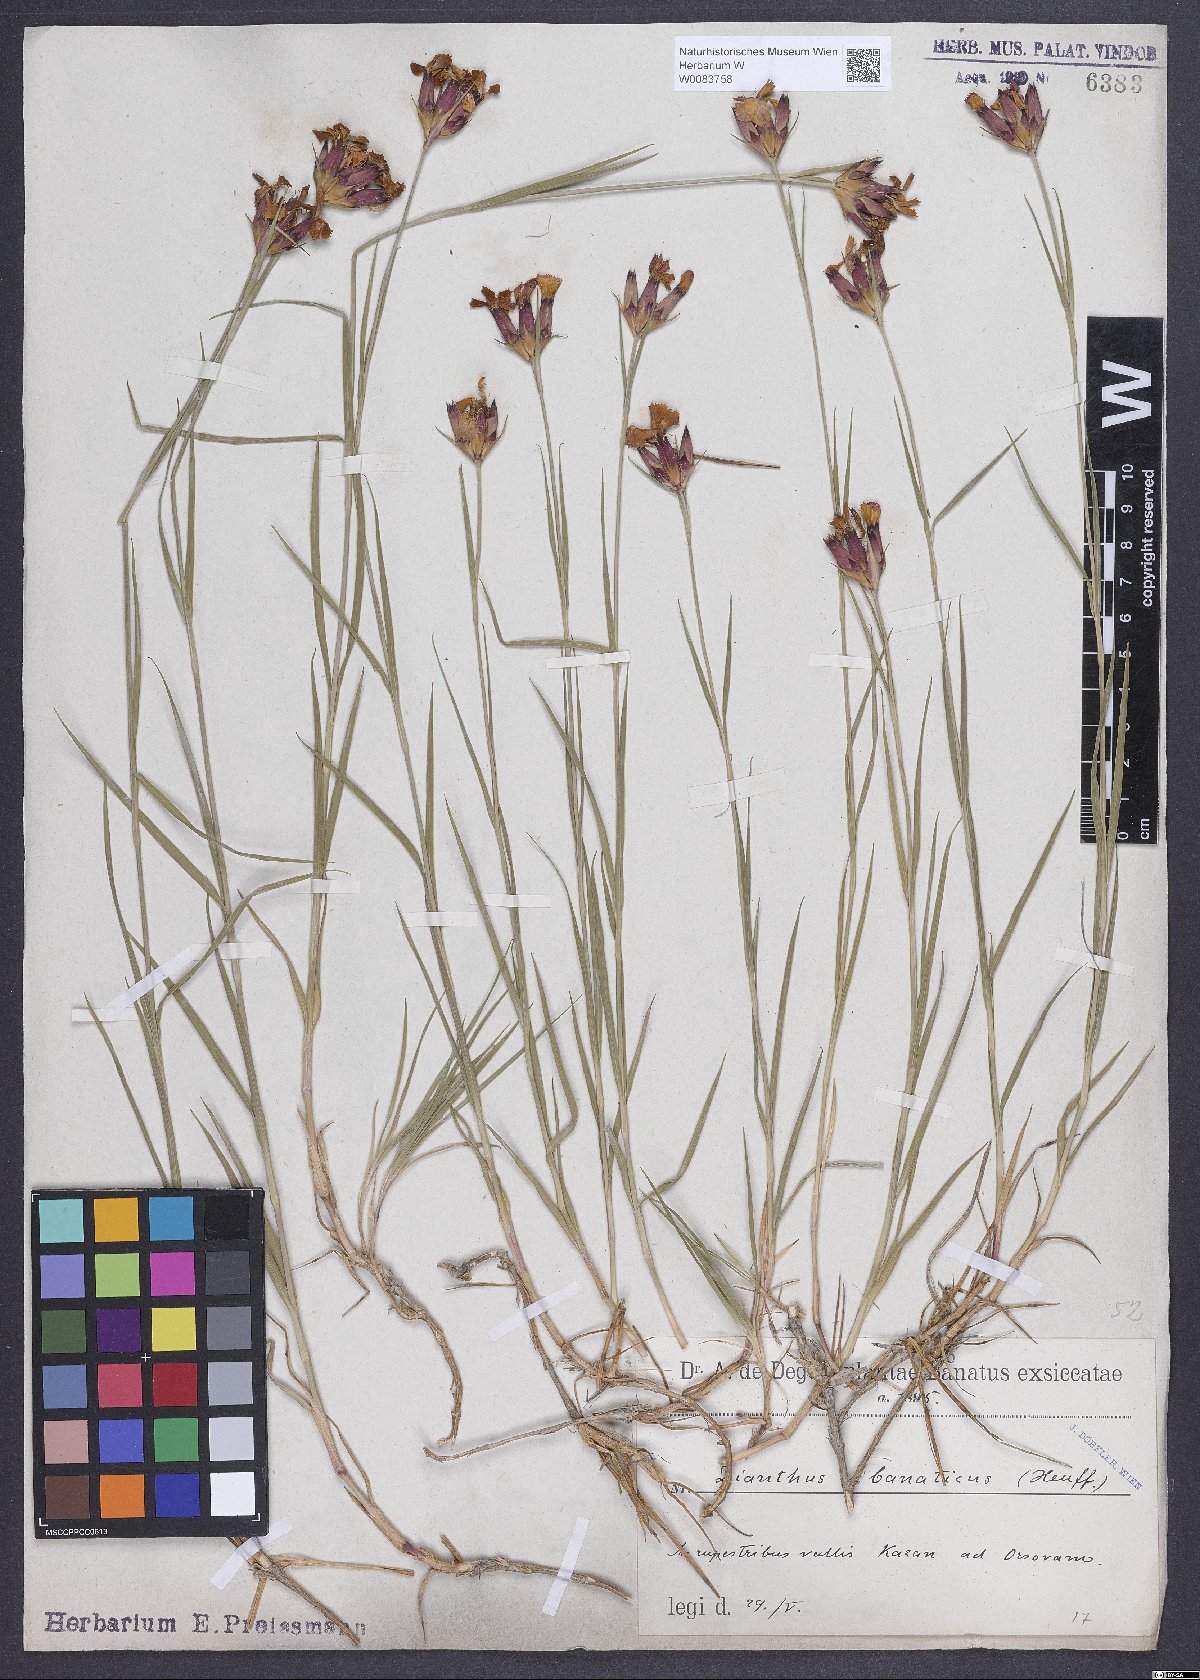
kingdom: Plantae
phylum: Tracheophyta
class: Magnoliopsida
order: Caryophyllales
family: Caryophyllaceae
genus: Dianthus
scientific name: Dianthus giganteus
